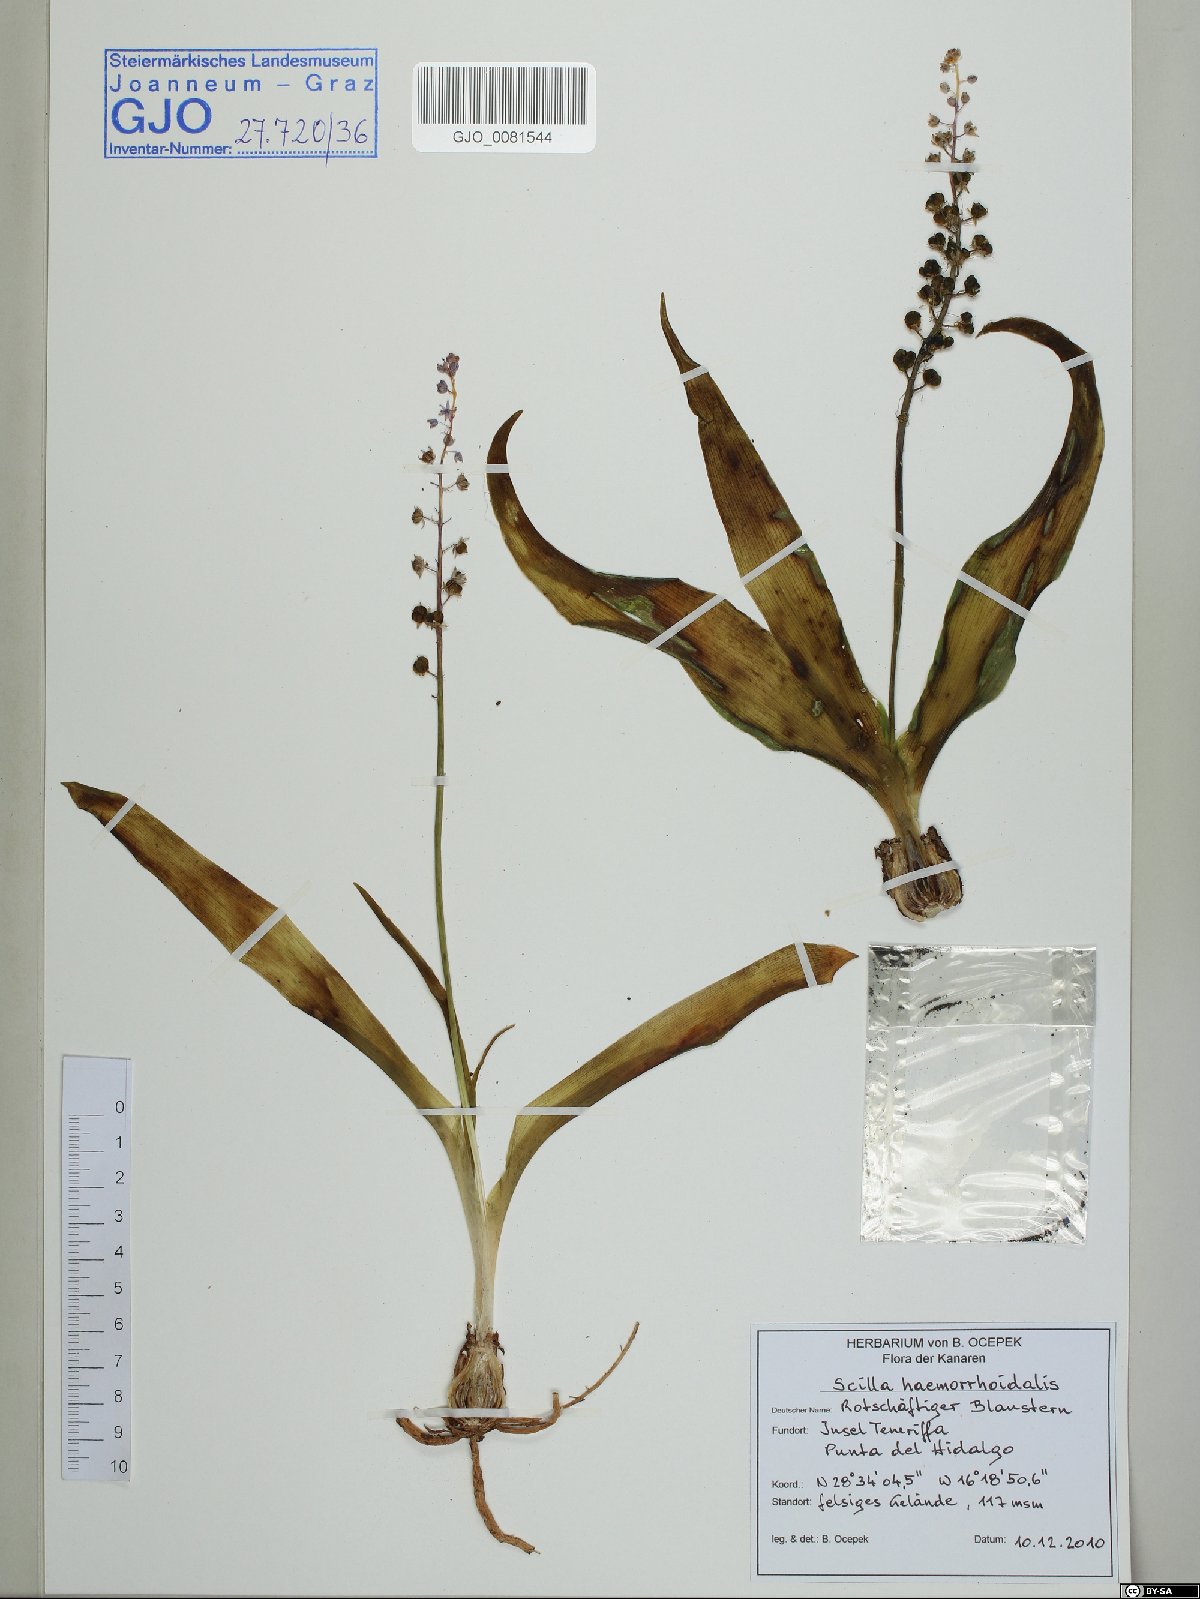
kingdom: Plantae
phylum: Tracheophyta
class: Liliopsida
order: Asparagales
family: Asparagaceae
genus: Scilla
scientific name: Scilla haemorrhoidalis
